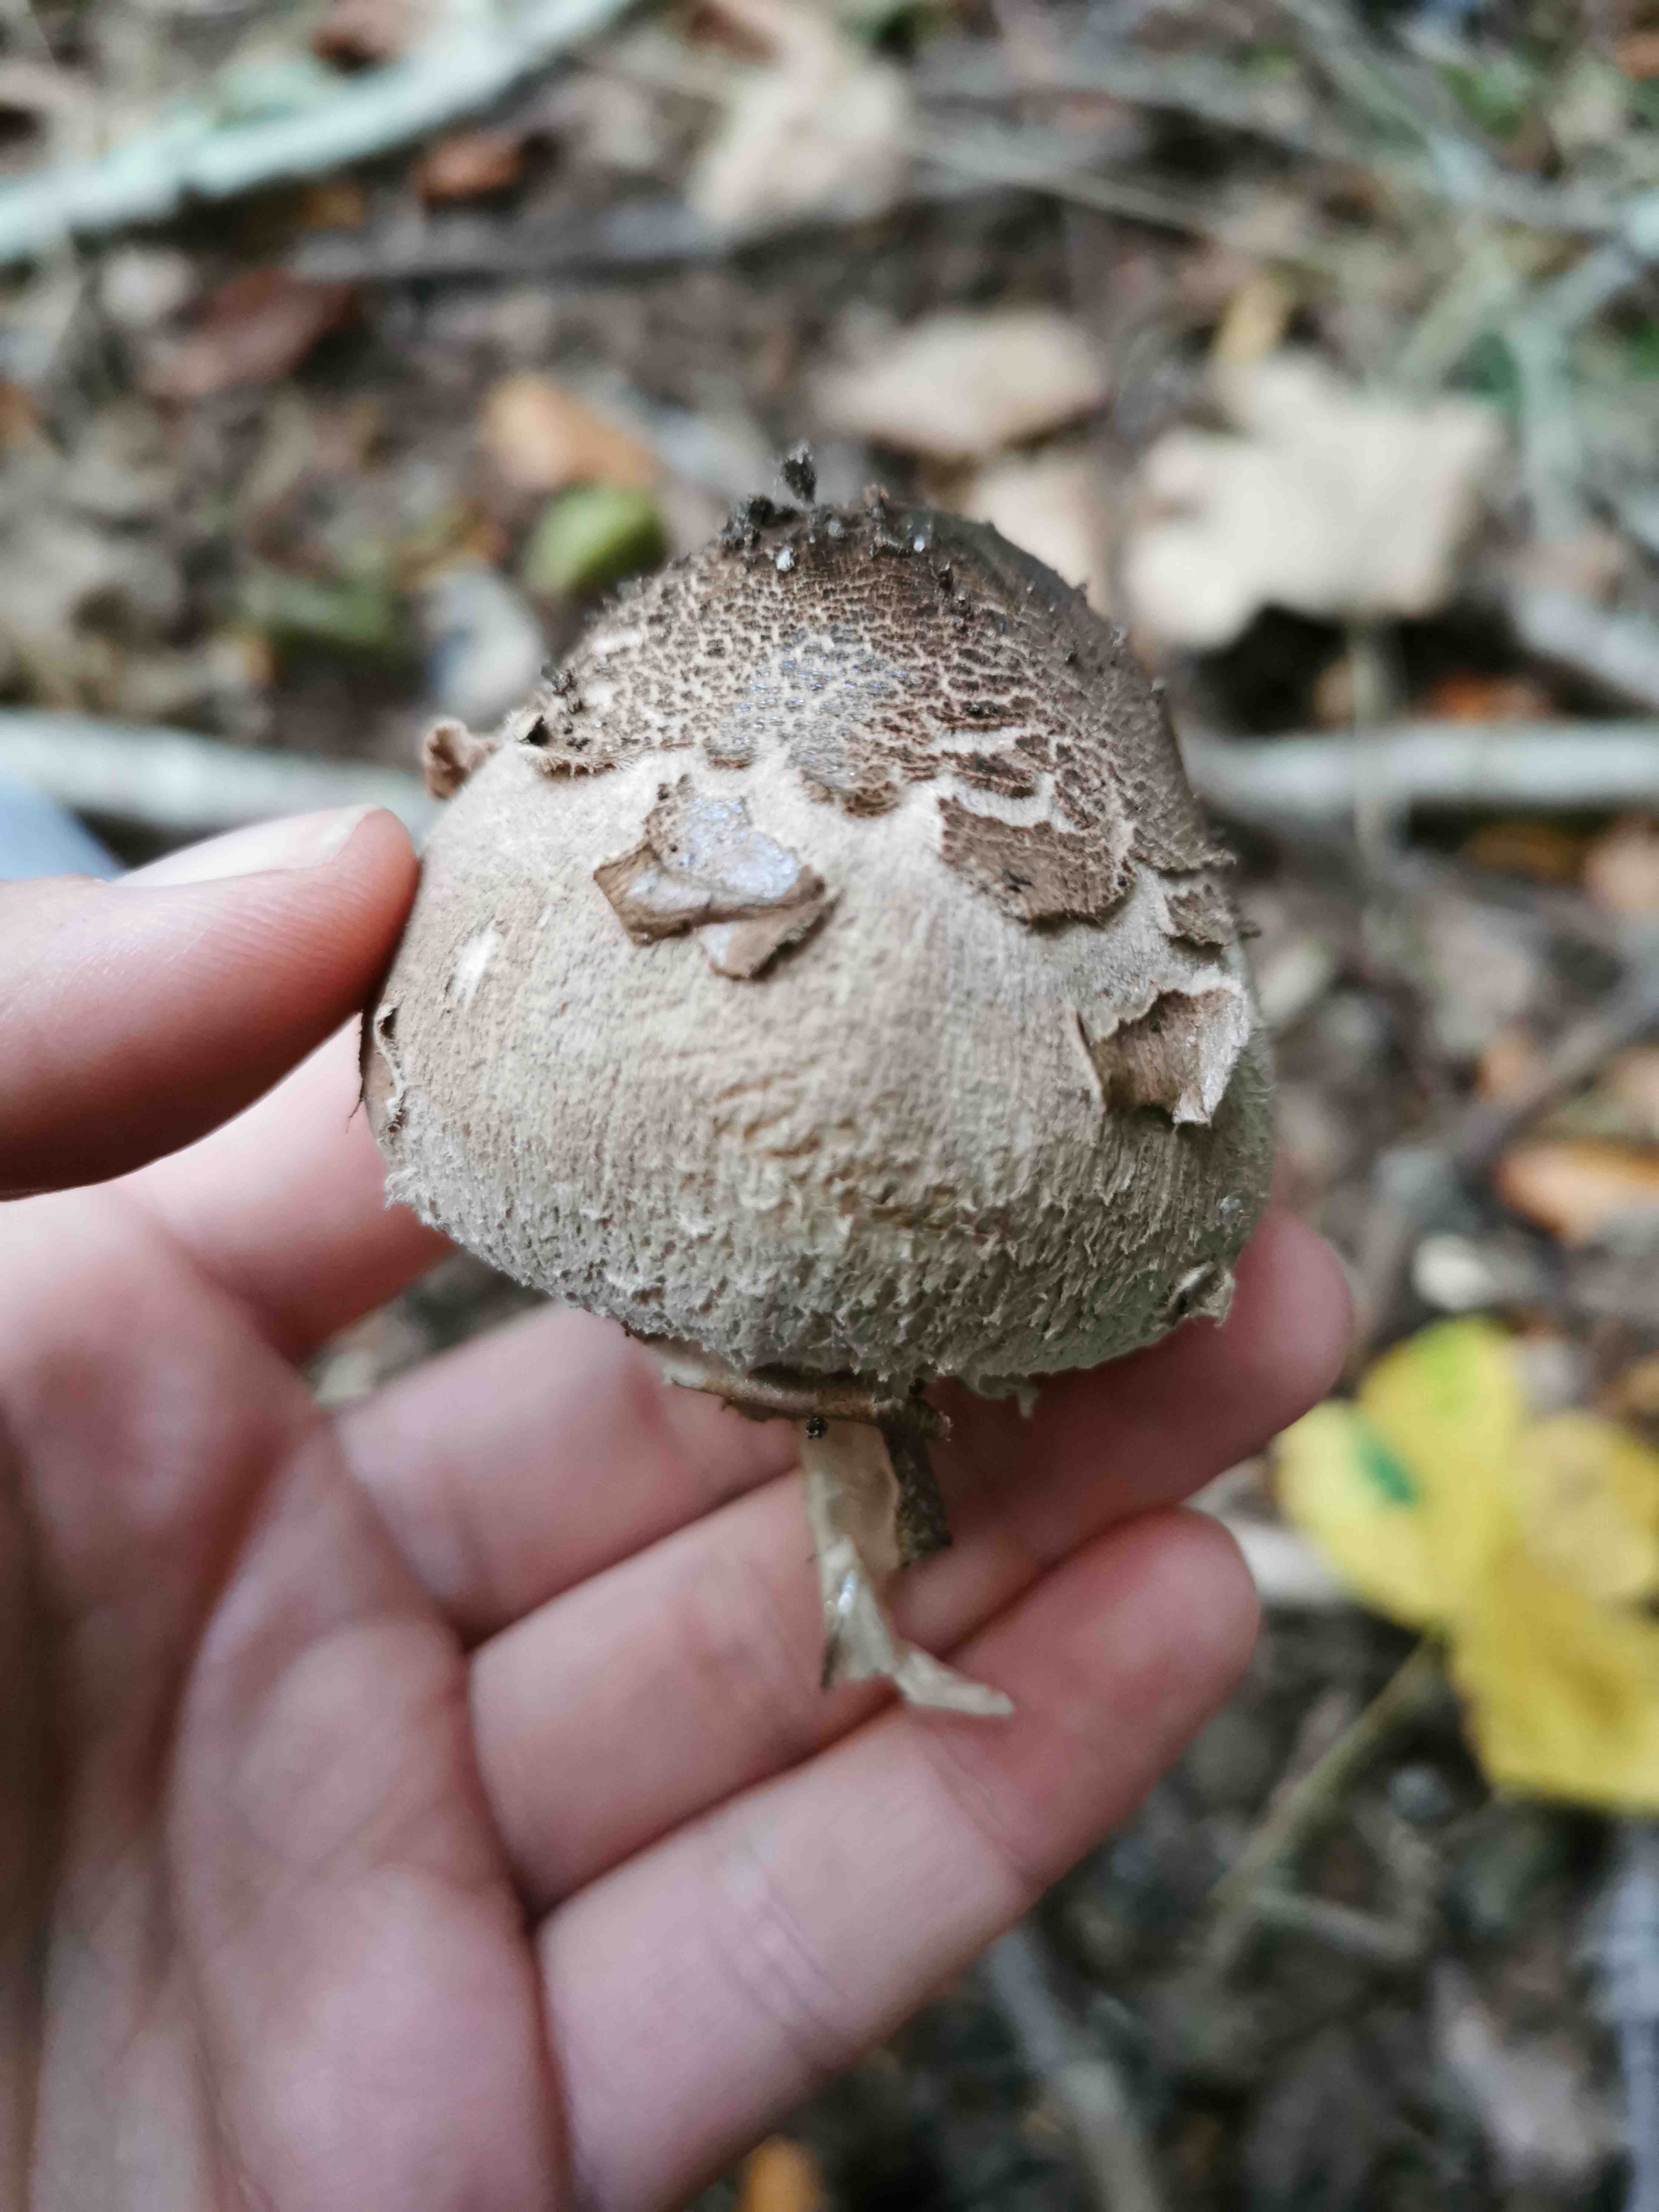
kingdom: Fungi
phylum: Basidiomycota
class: Agaricomycetes
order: Agaricales
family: Agaricaceae
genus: Macrolepiota
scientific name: Macrolepiota
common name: kæmpeparasolhat
